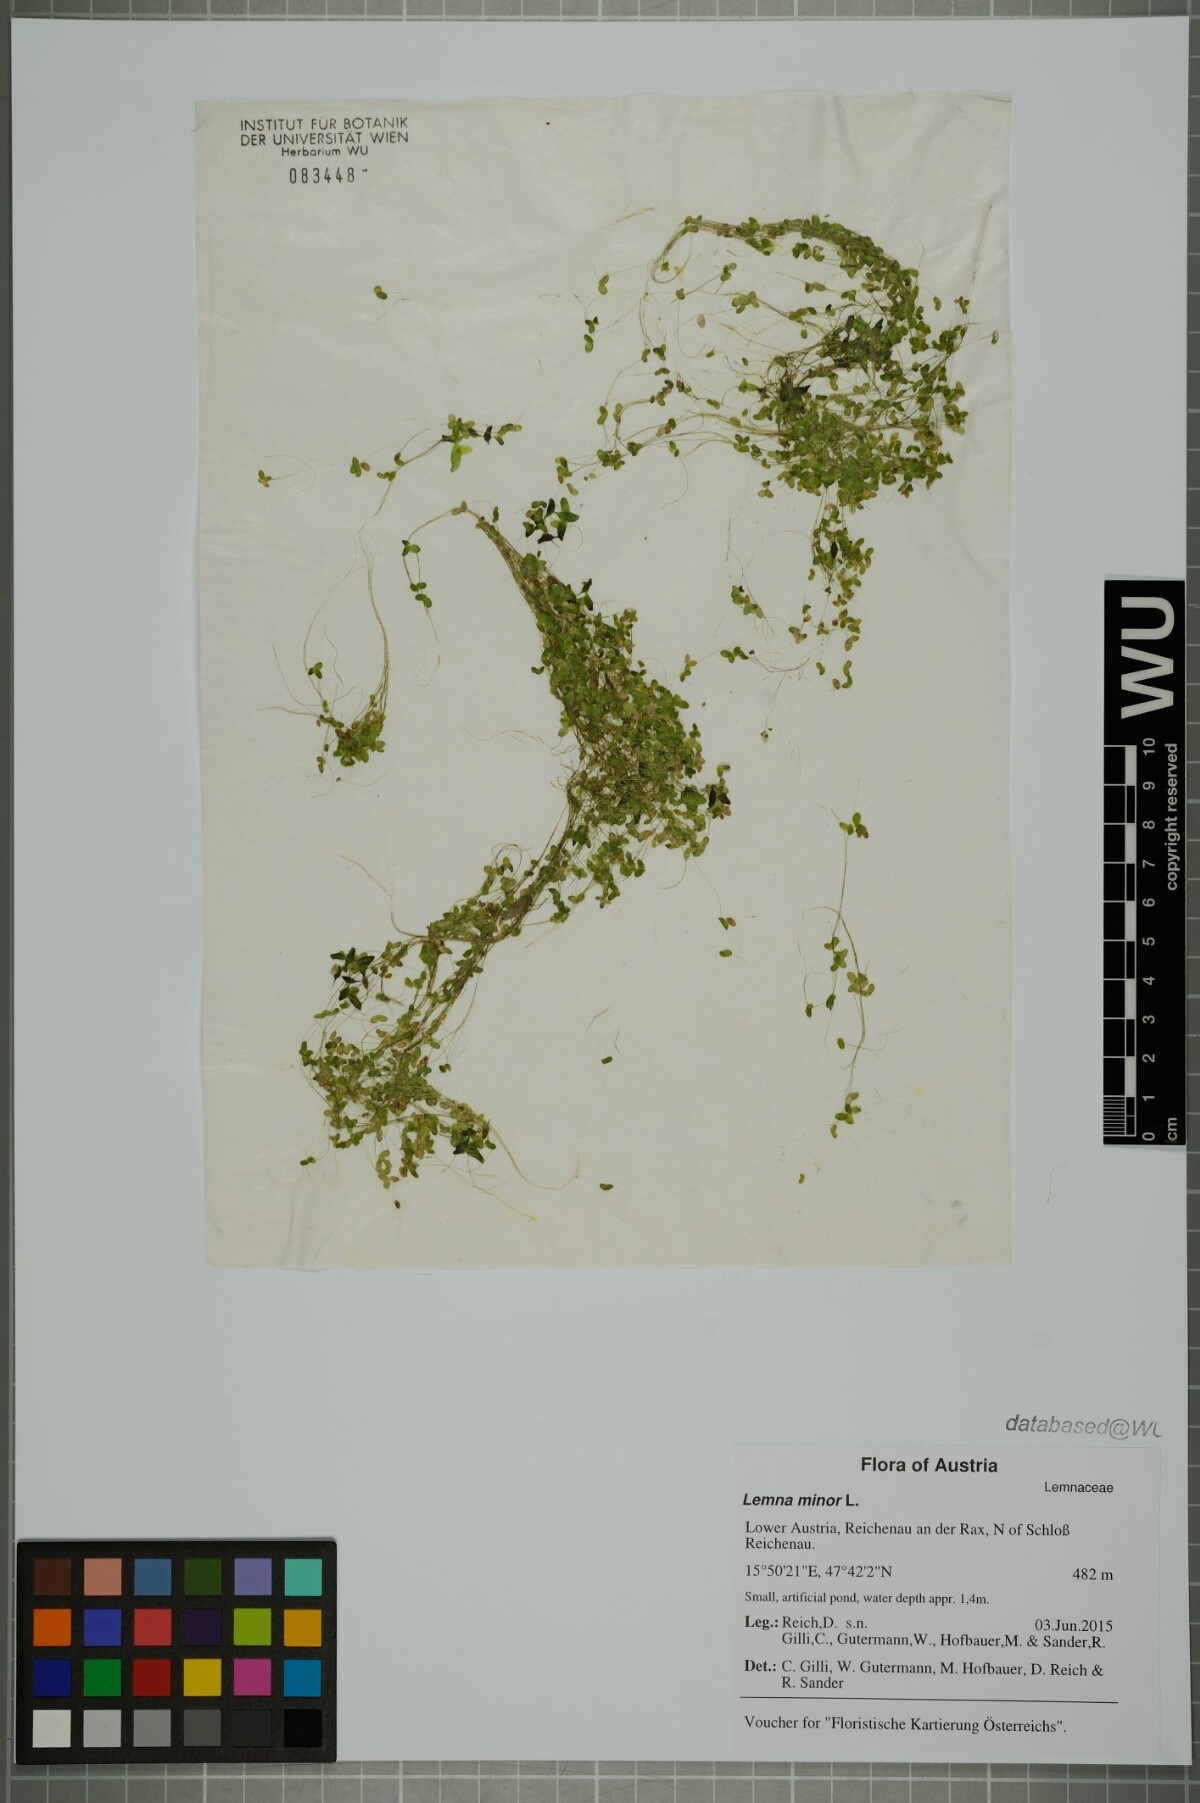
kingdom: Plantae
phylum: Tracheophyta
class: Liliopsida
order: Alismatales
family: Araceae
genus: Lemna
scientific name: Lemna minor
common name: Common duckweed
